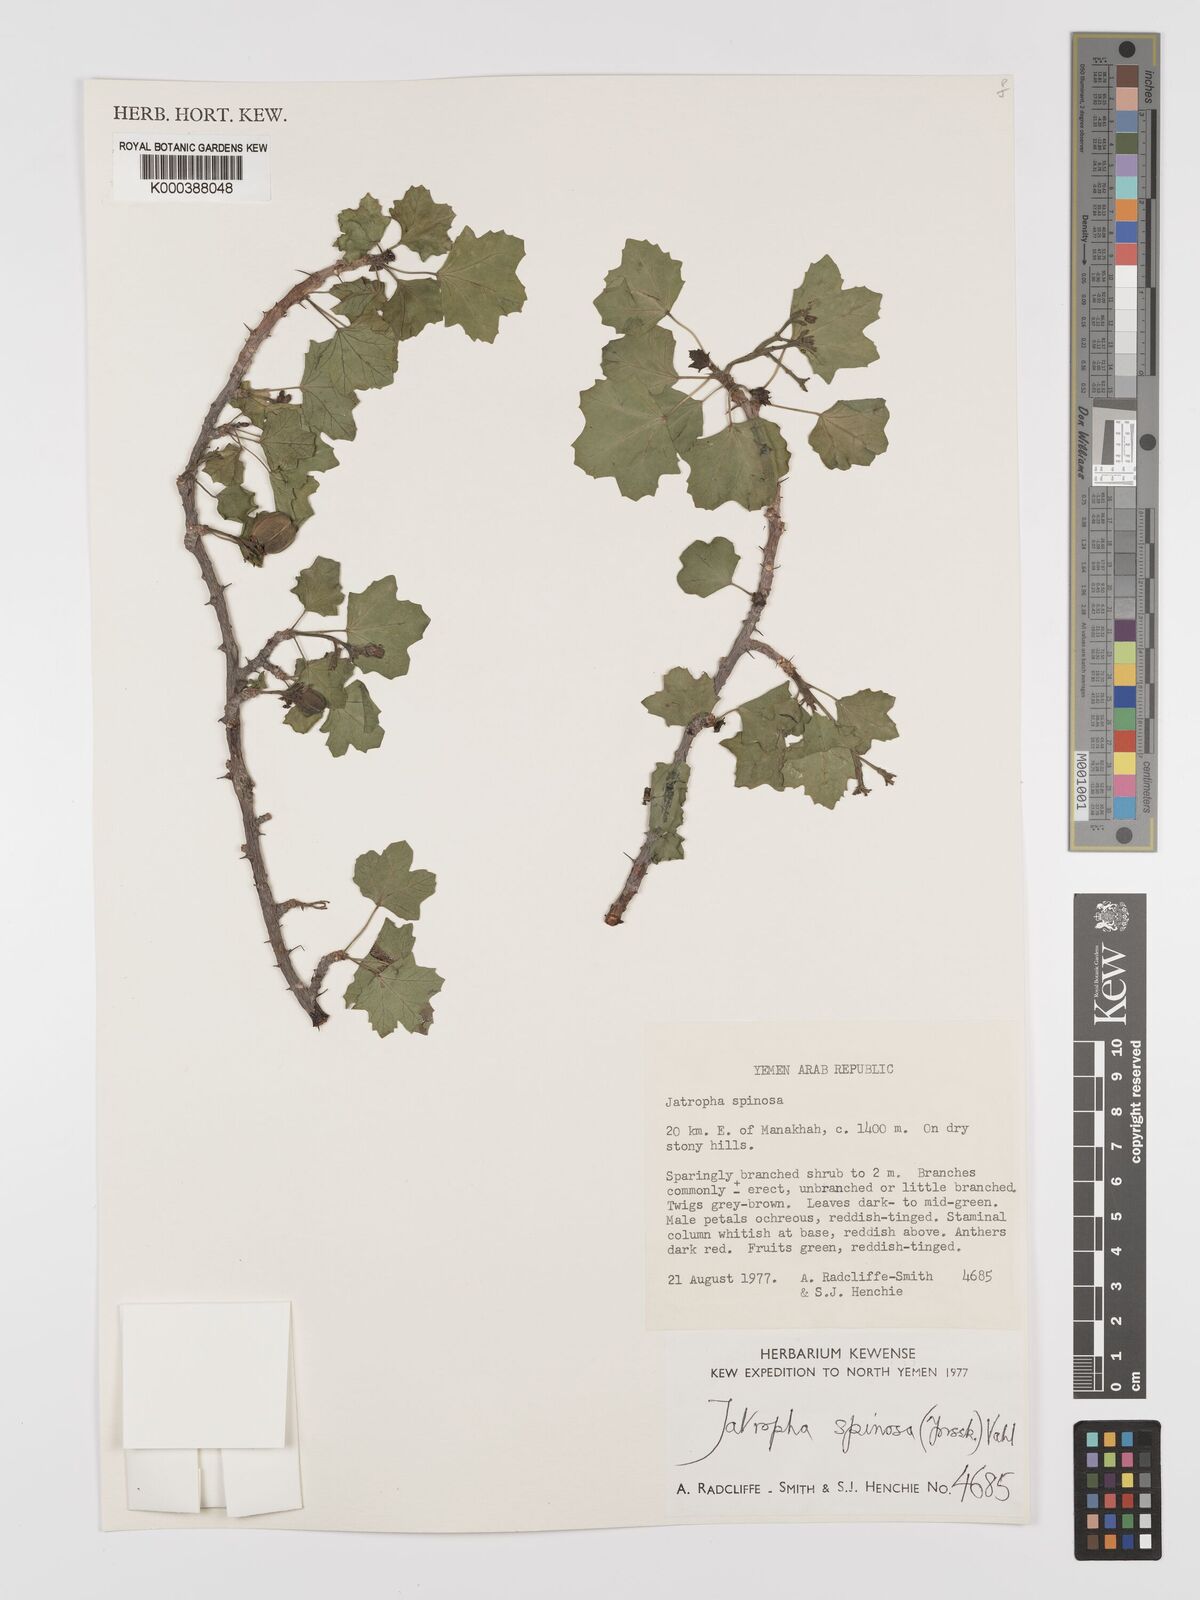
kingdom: Plantae
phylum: Tracheophyta
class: Magnoliopsida
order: Malpighiales
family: Euphorbiaceae
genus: Jatropha
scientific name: Jatropha spinosa
